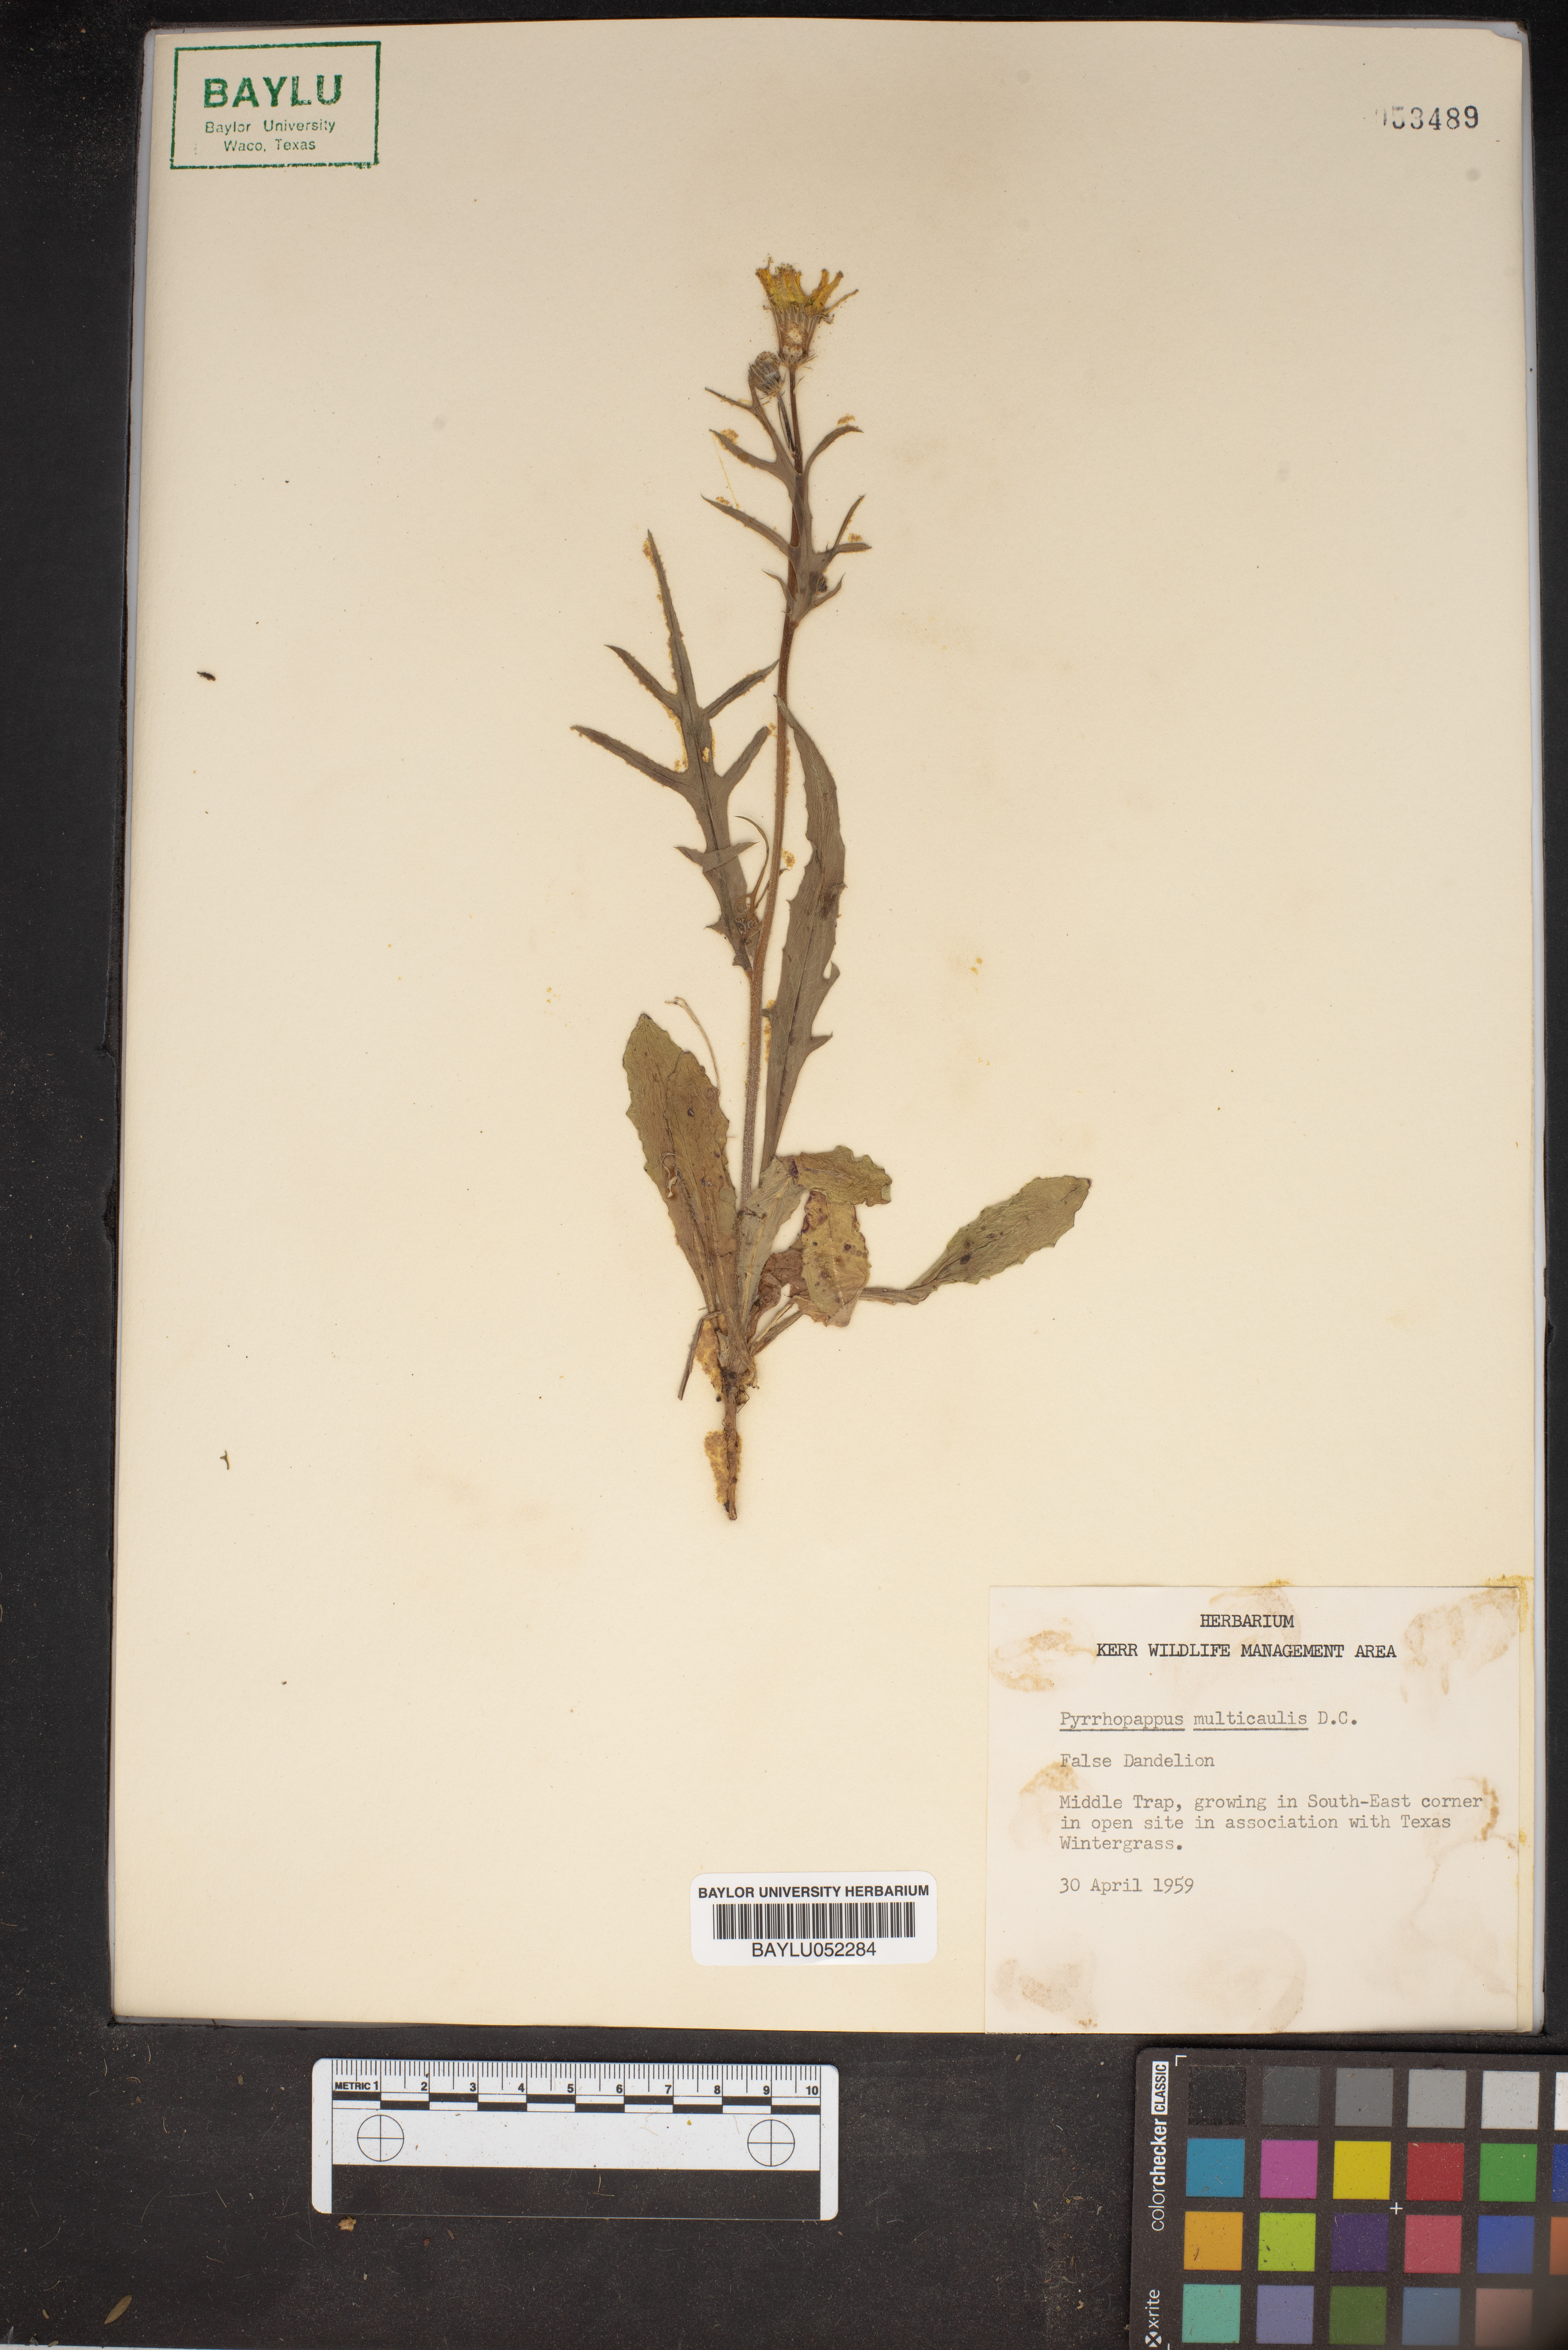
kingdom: Plantae
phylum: Tracheophyta
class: Magnoliopsida
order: Asterales
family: Asteraceae
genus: Pyrrhopappus
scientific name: Pyrrhopappus pauciflorus
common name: Texas false dandelion
